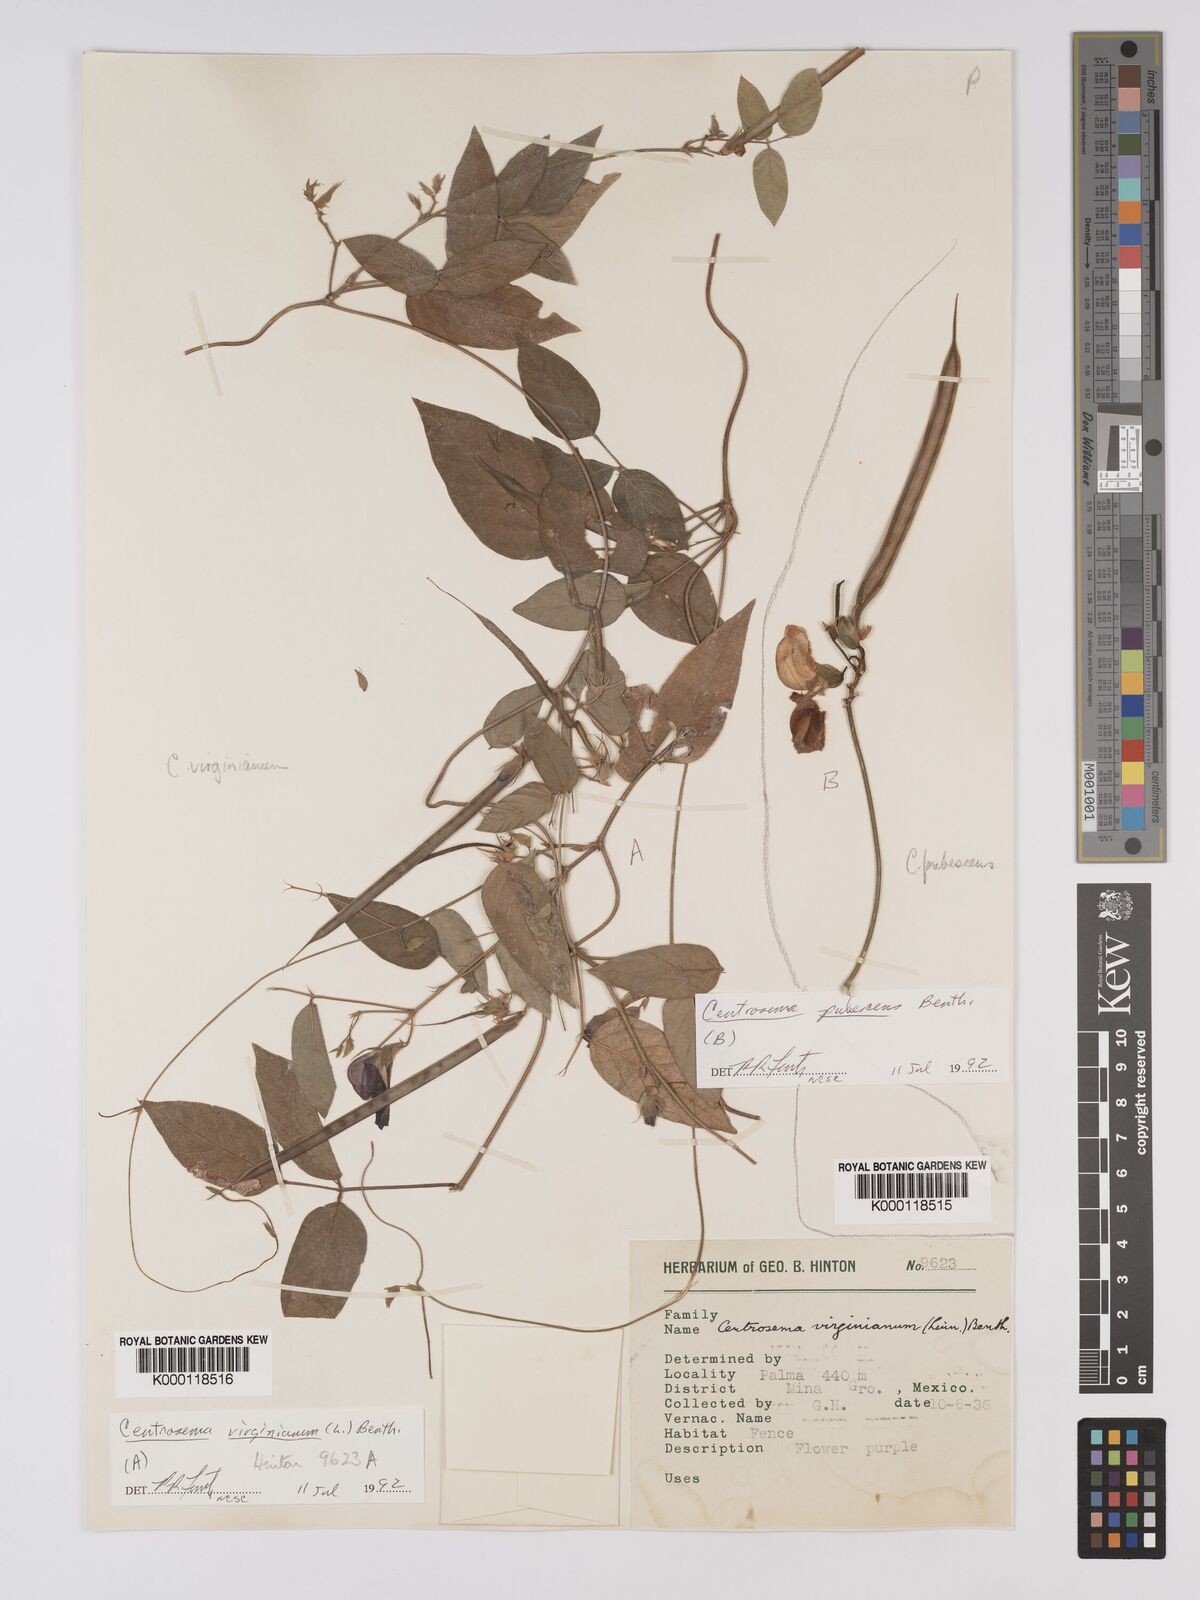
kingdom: Plantae
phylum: Tracheophyta
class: Magnoliopsida
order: Fabales
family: Fabaceae
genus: Centrosema
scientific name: Centrosema pubescens
